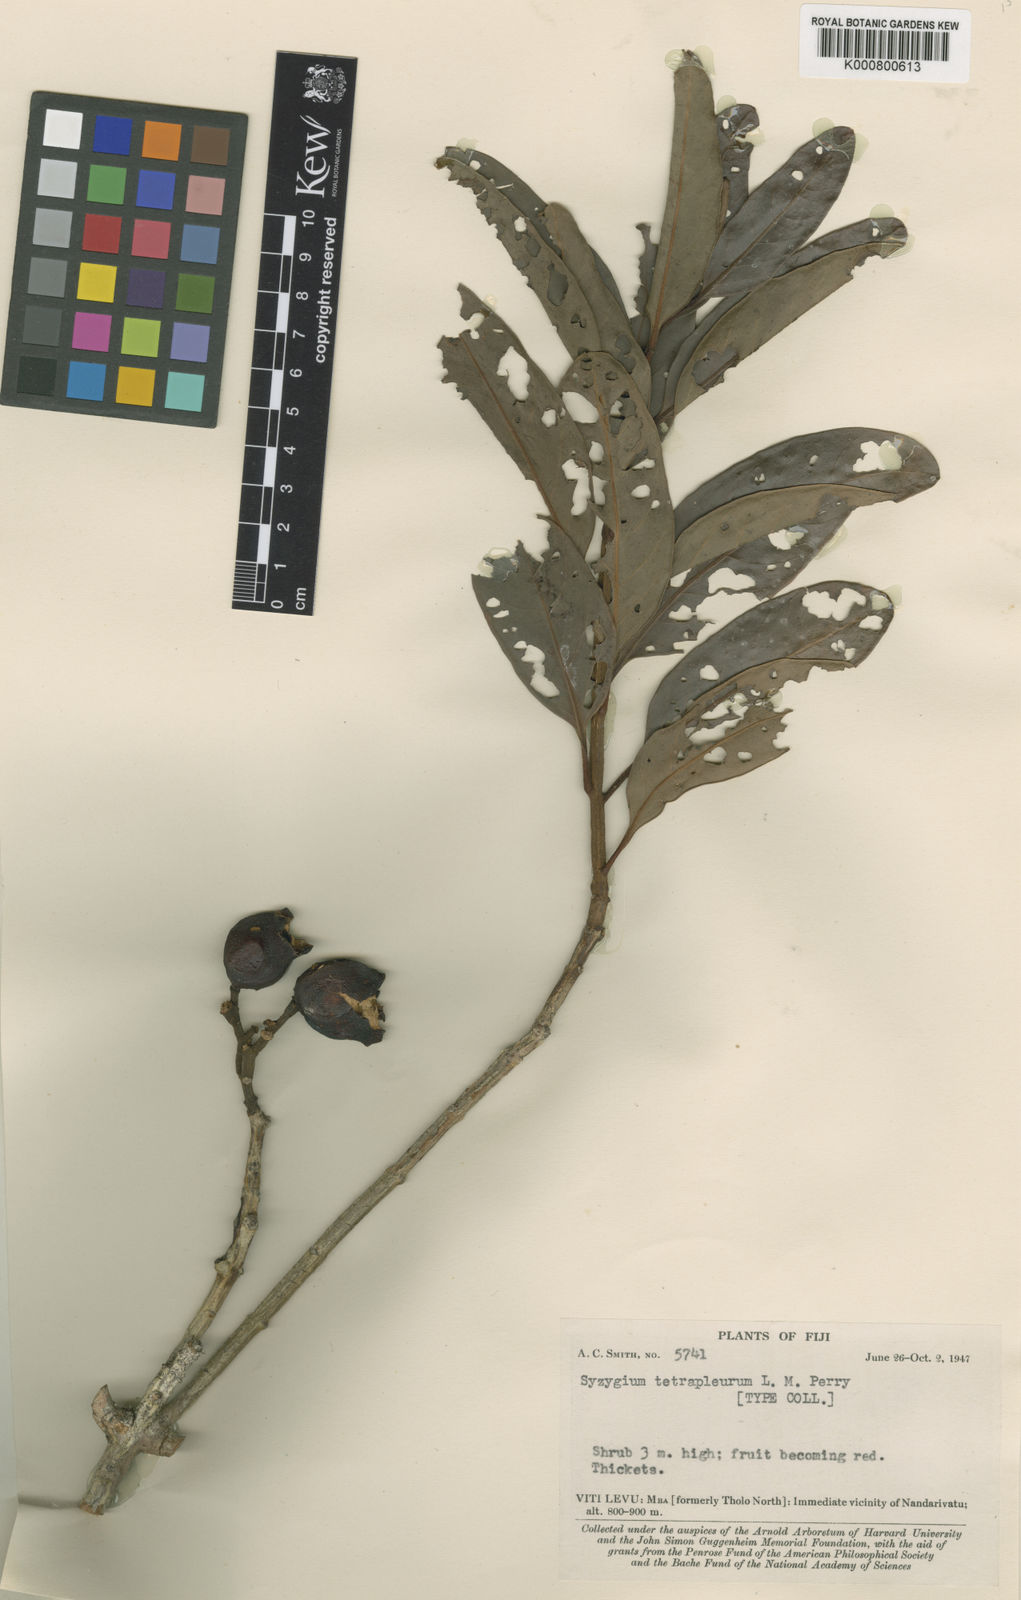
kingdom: Plantae
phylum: Tracheophyta
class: Magnoliopsida
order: Myrtales
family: Myrtaceae
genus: Syzygium
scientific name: Syzygium tetrapleurum
